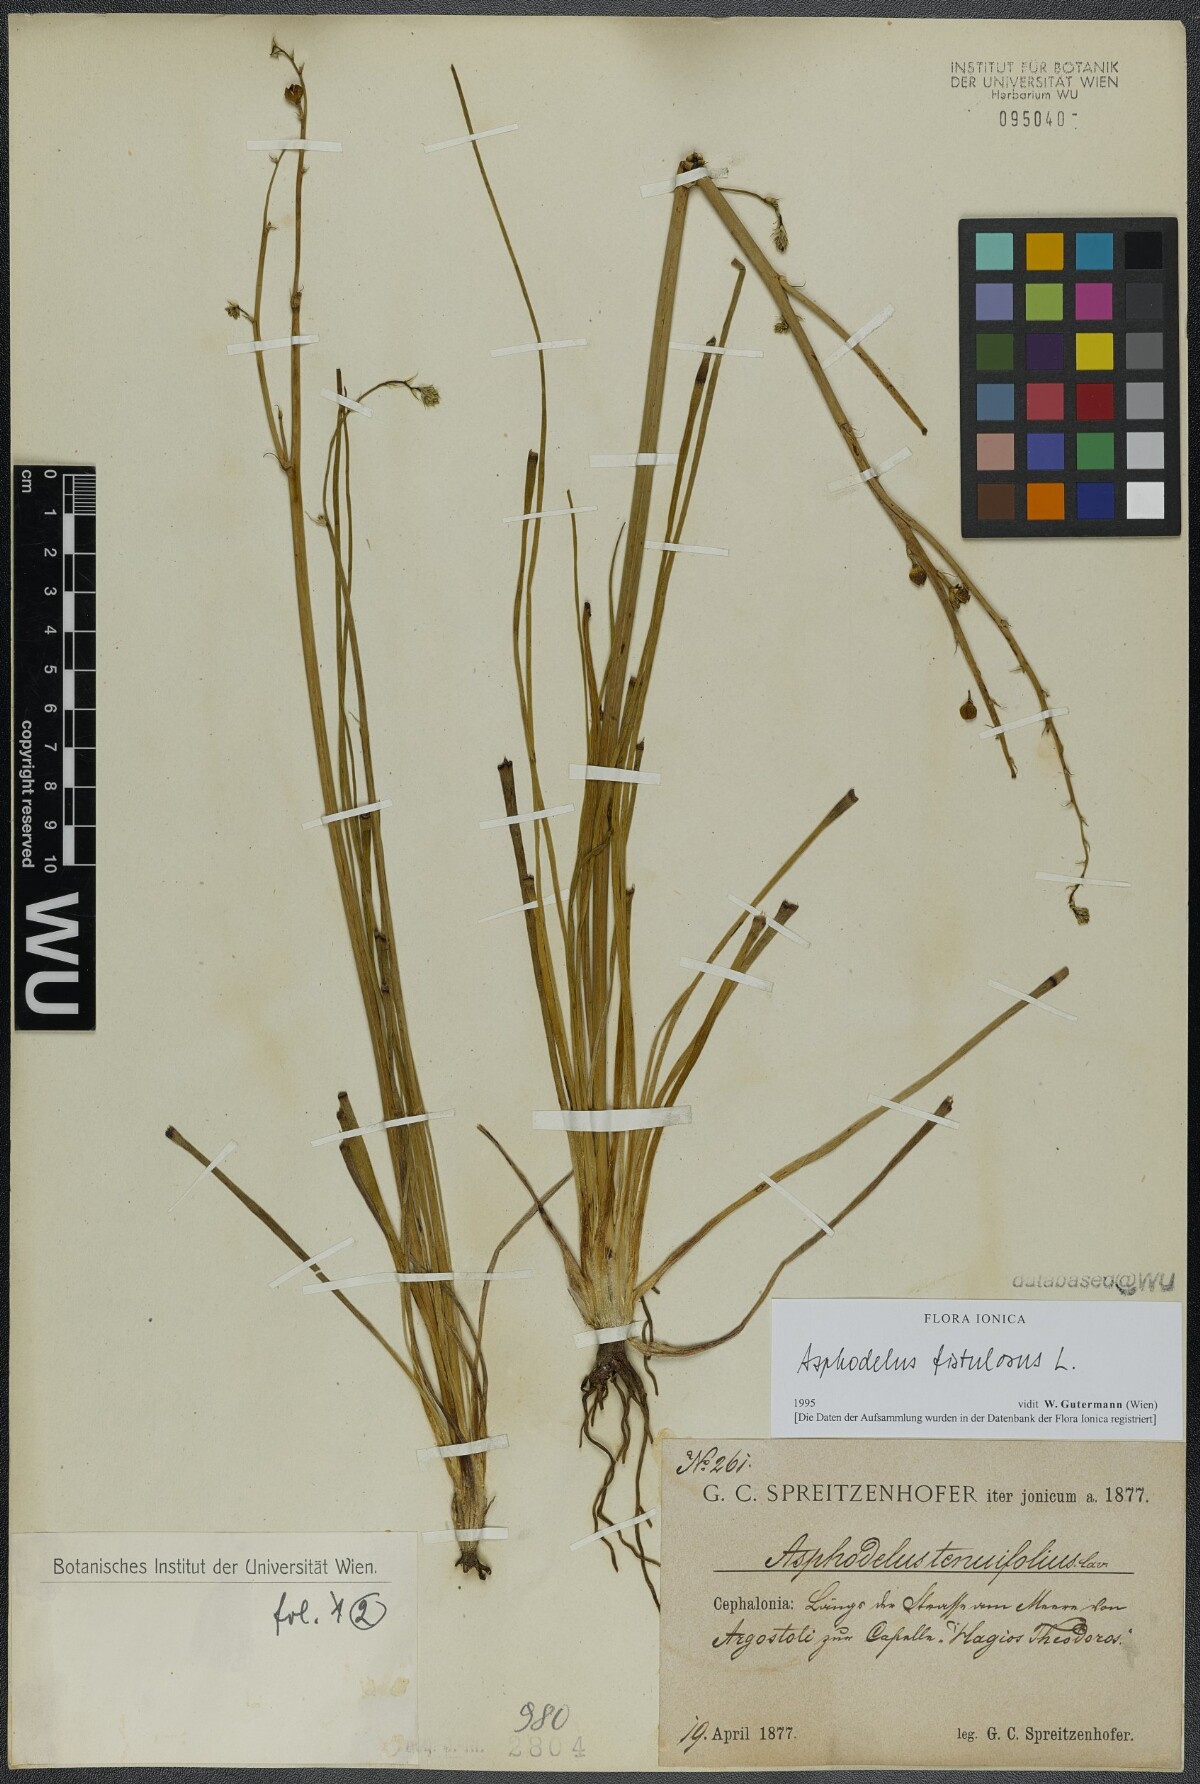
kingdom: Plantae
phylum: Tracheophyta
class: Liliopsida
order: Asparagales
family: Asphodelaceae
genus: Asphodelus
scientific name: Asphodelus fistulosus
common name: Onionweed
